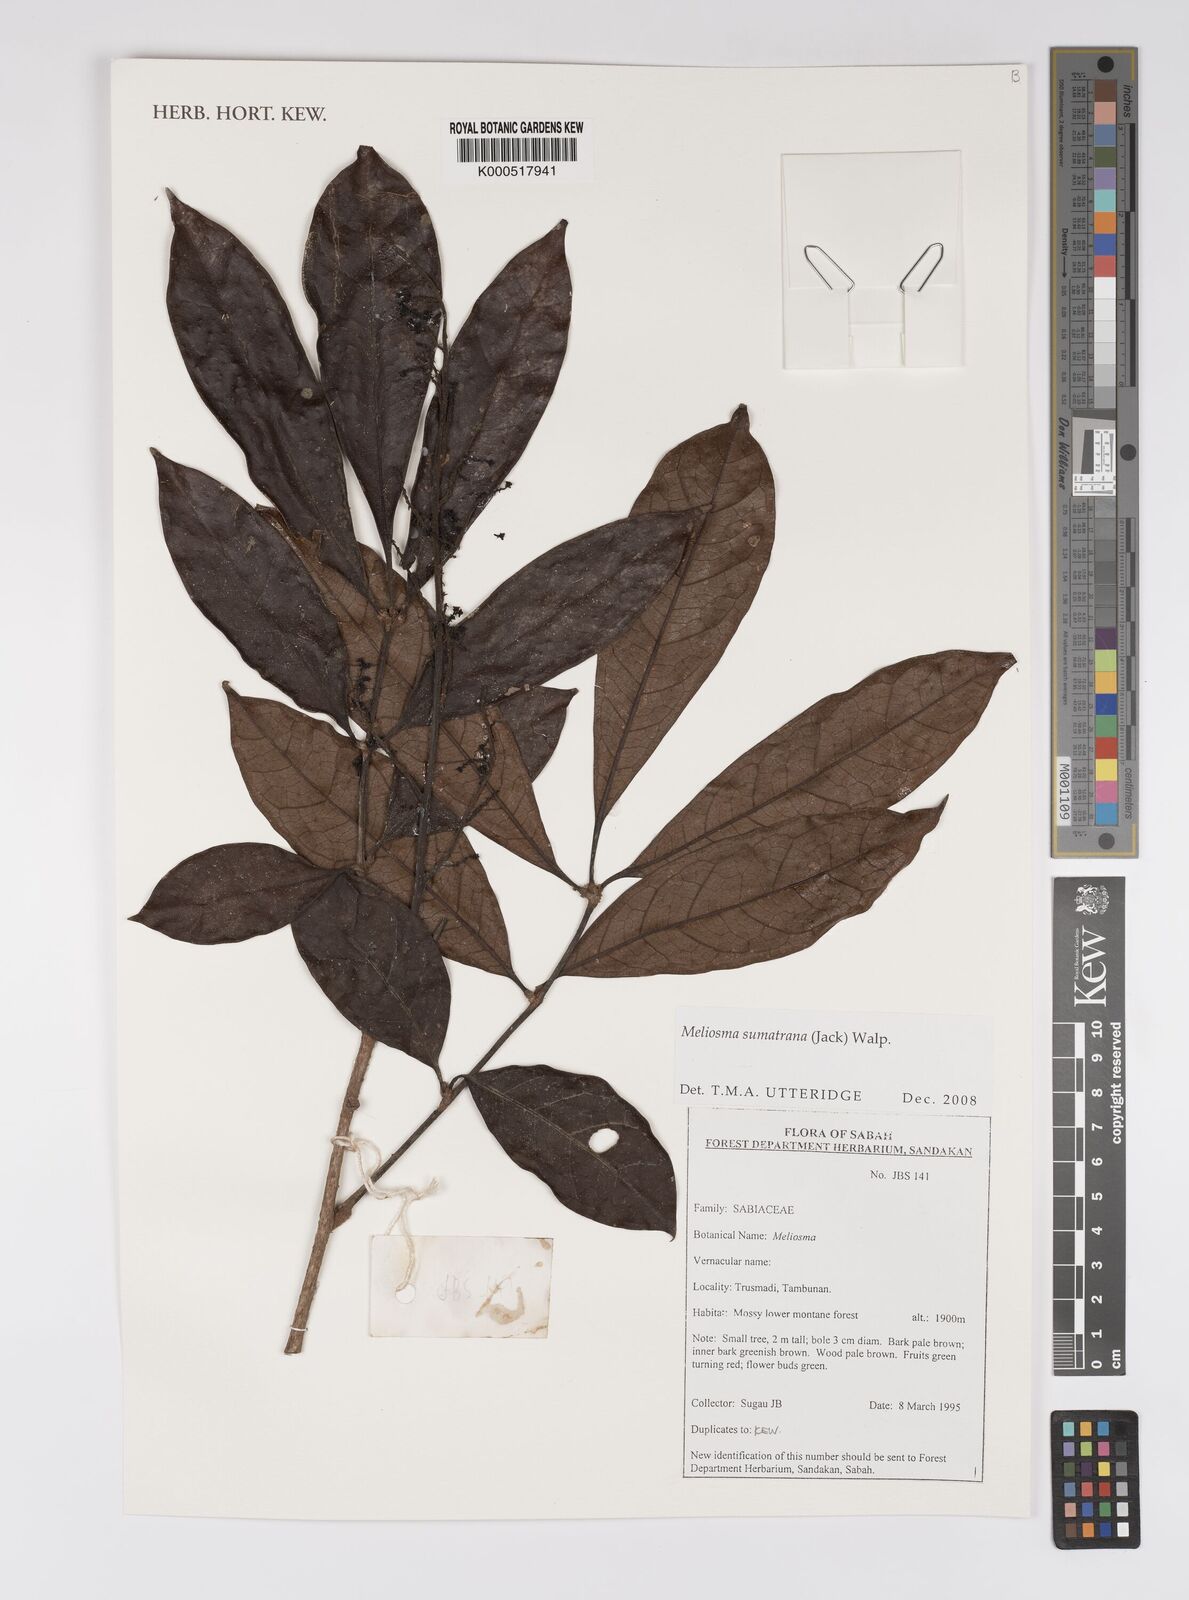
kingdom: Plantae
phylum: Tracheophyta
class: Magnoliopsida
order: Proteales
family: Sabiaceae
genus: Meliosma
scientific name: Meliosma sumatrana
